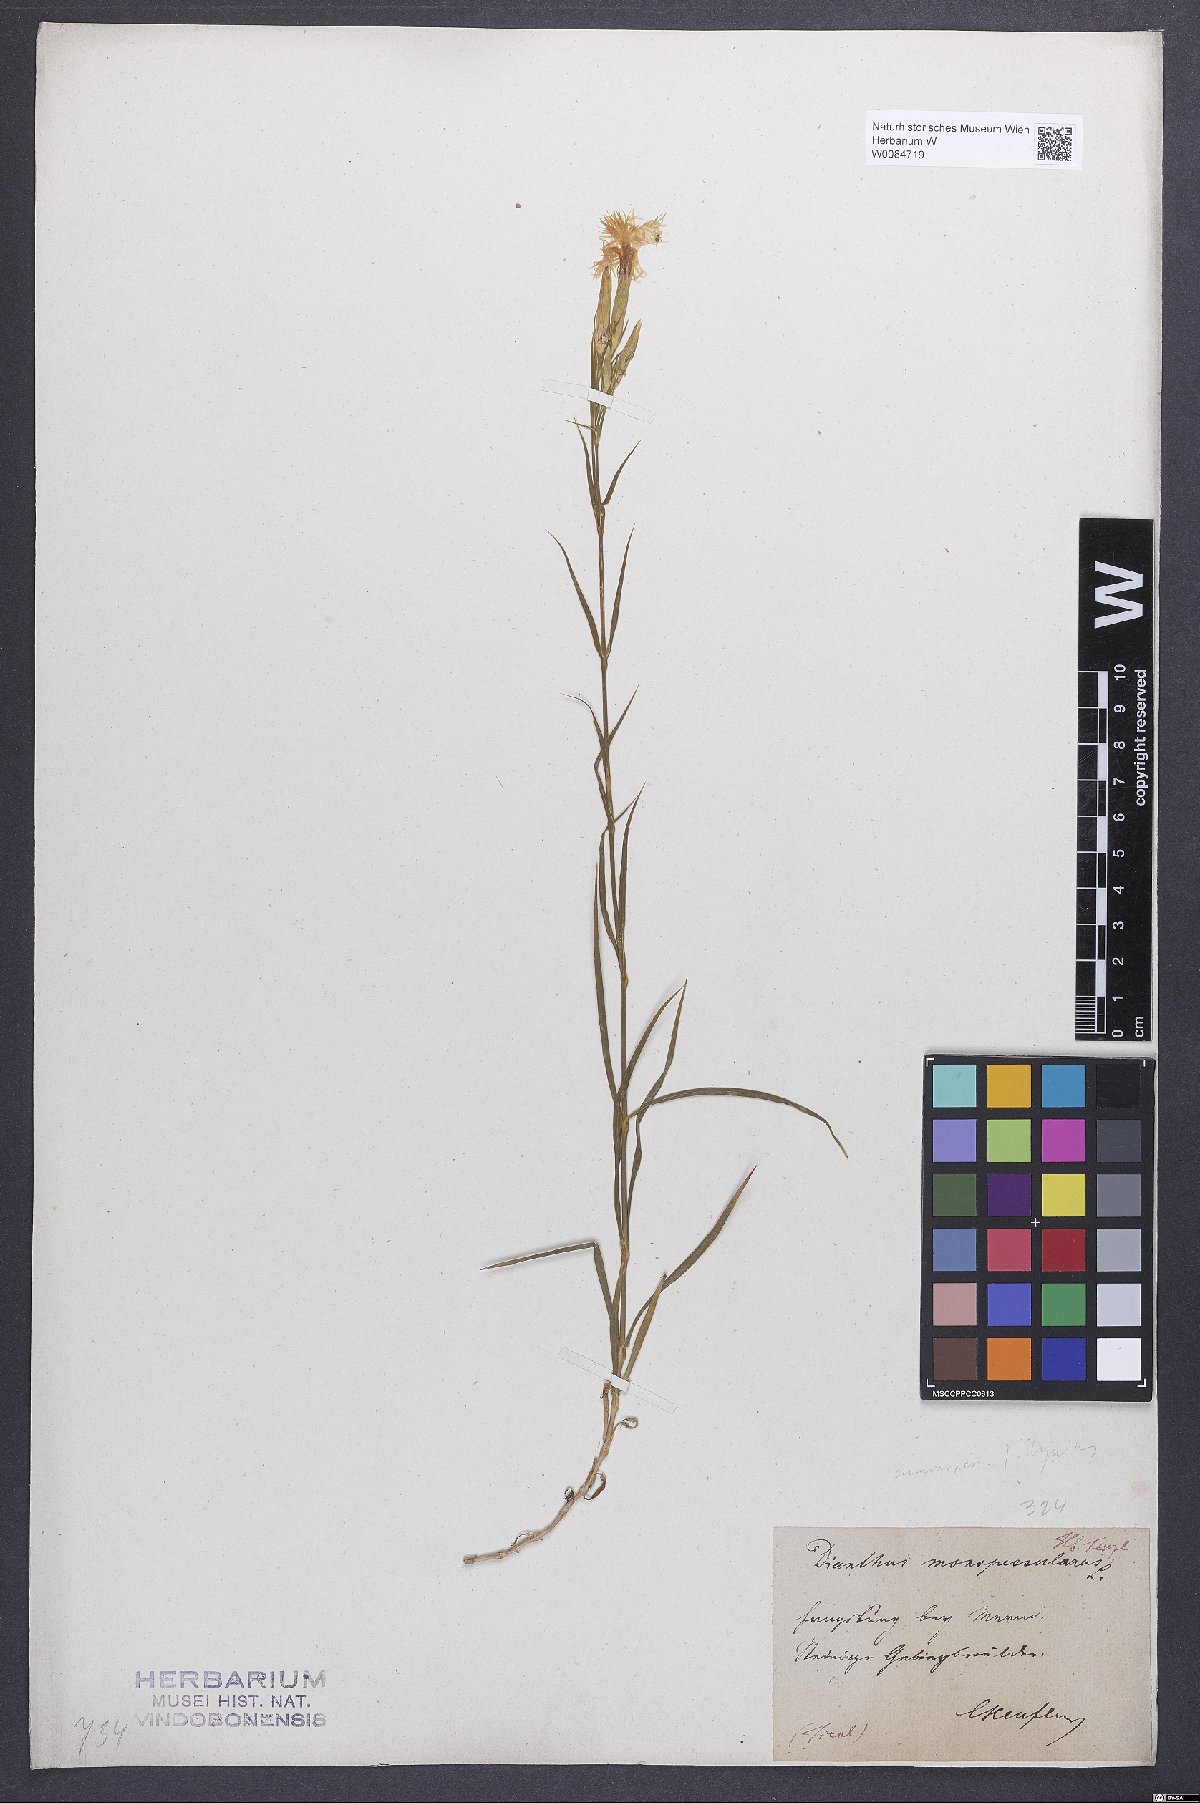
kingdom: Plantae
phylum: Tracheophyta
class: Magnoliopsida
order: Caryophyllales
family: Caryophyllaceae
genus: Dianthus
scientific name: Dianthus hyssopifolius
